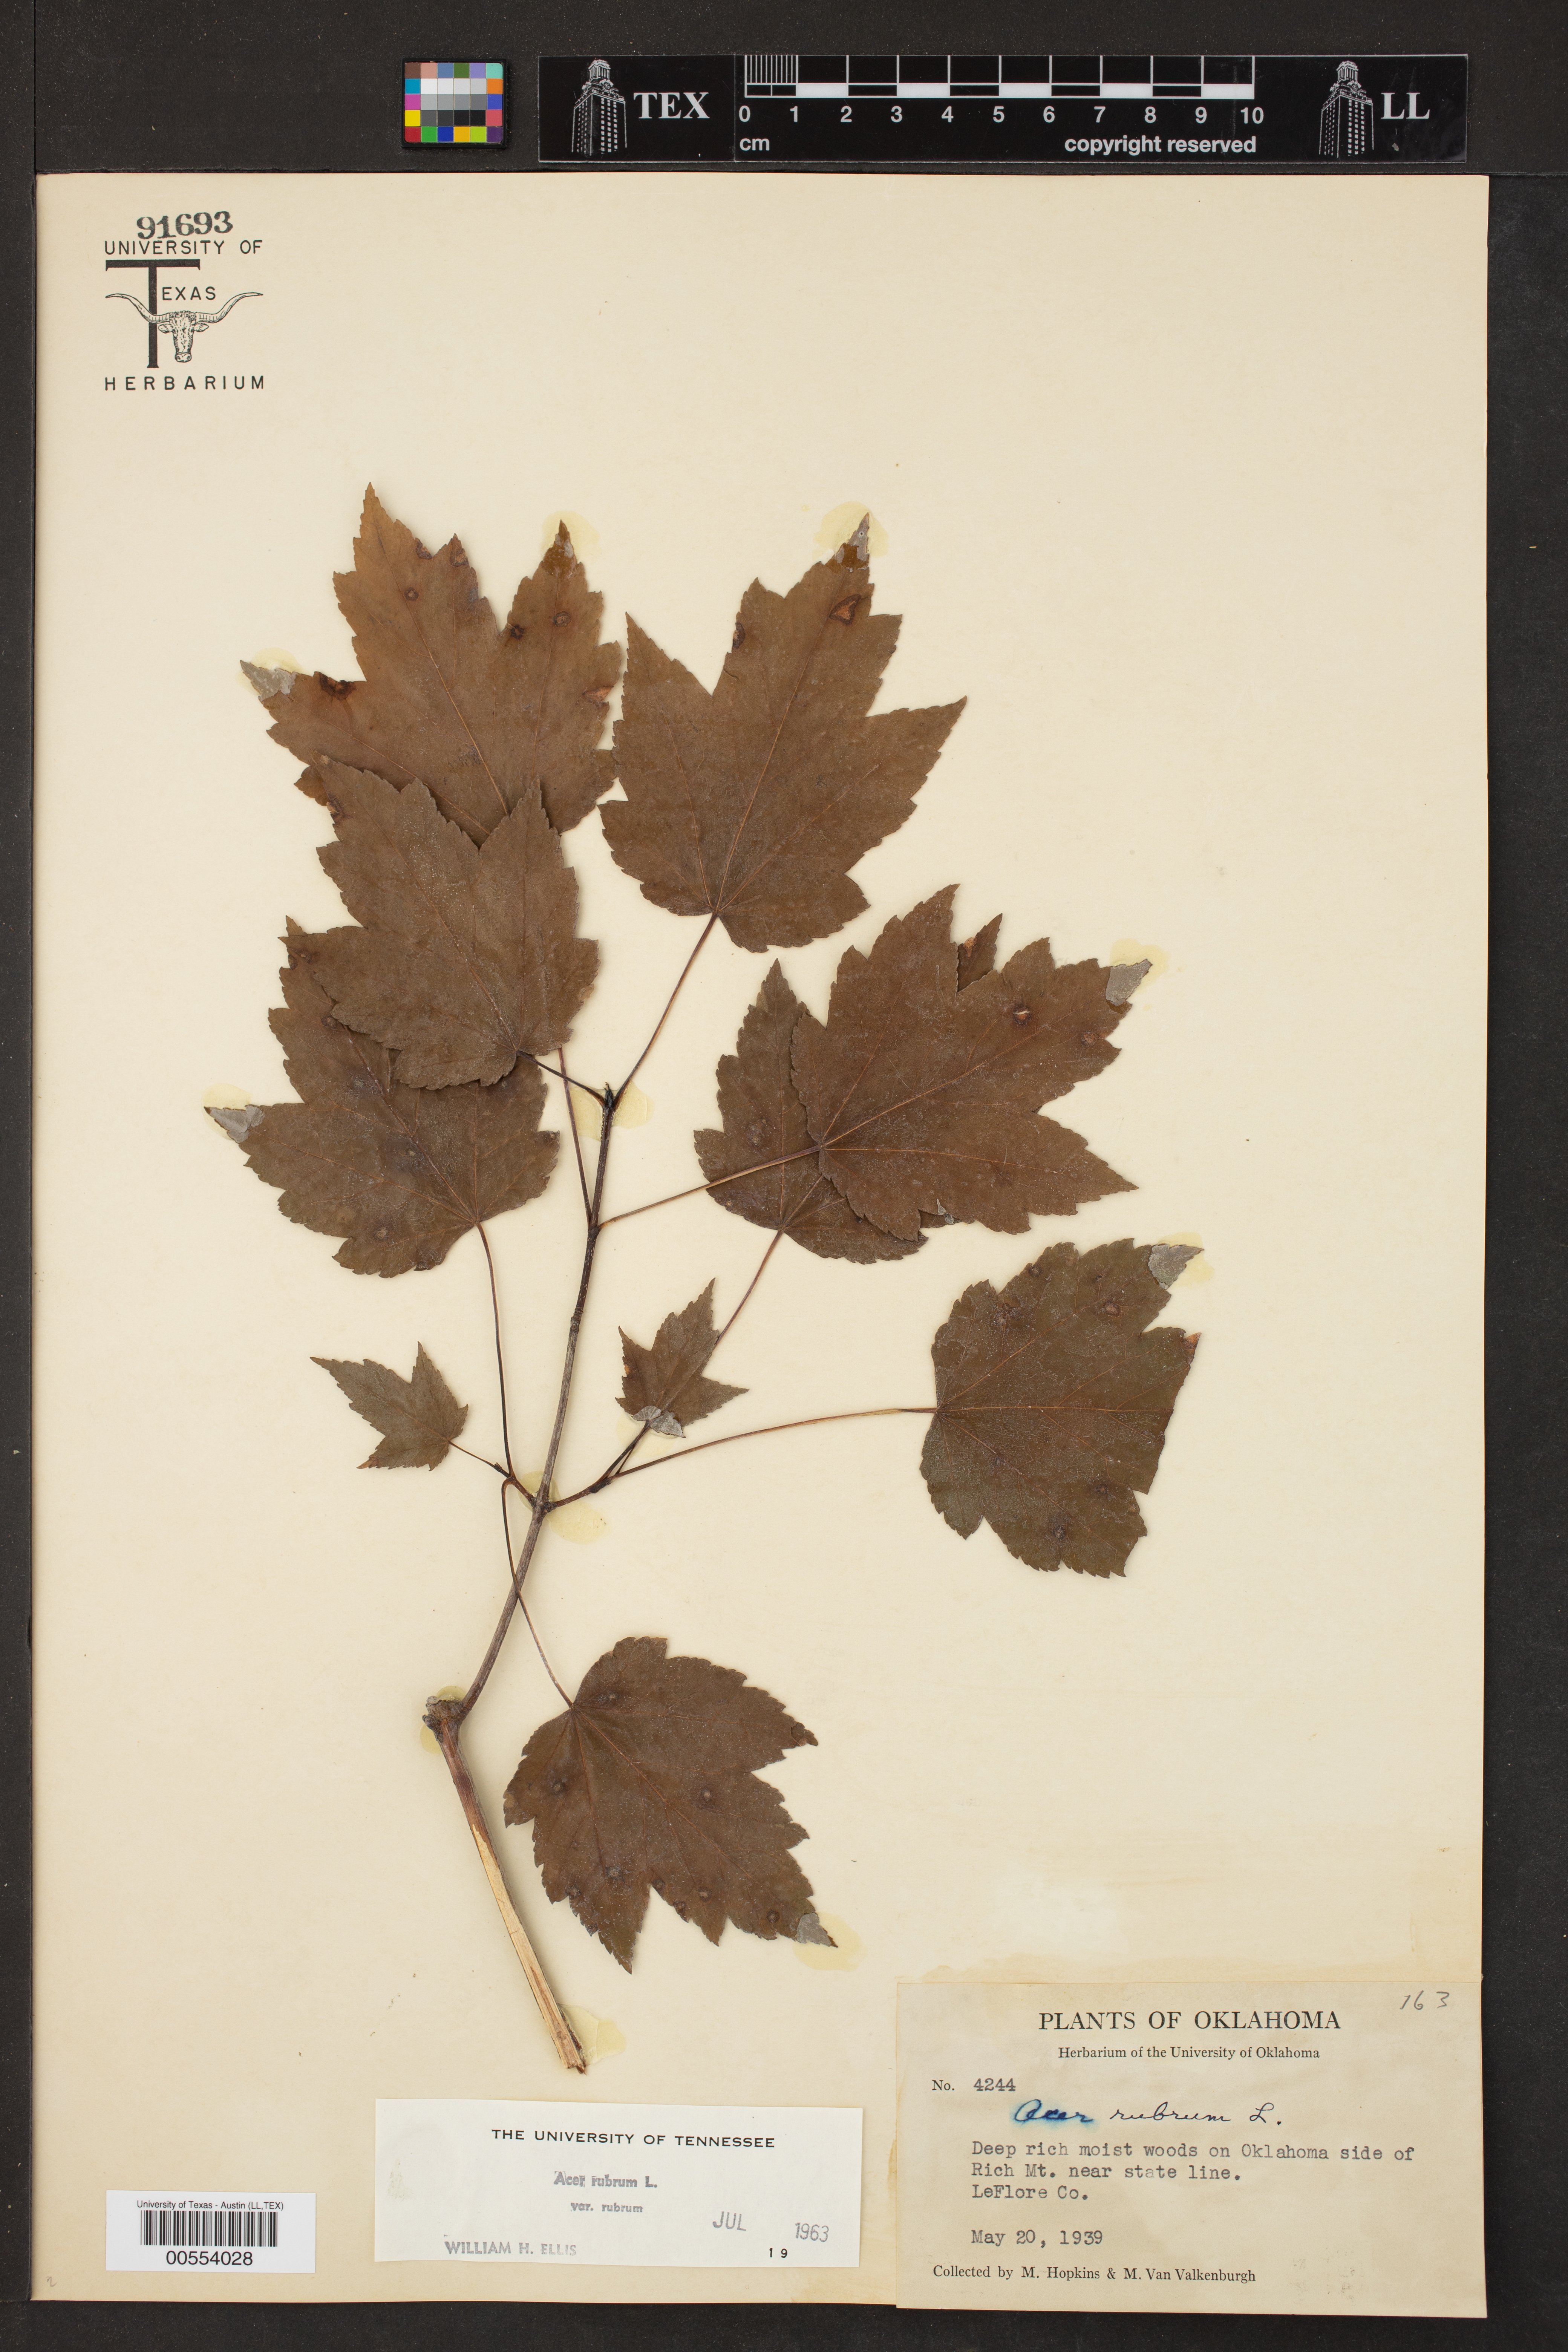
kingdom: Plantae
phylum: Tracheophyta
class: Magnoliopsida
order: Sapindales
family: Sapindaceae
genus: Acer
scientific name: Acer rubrum
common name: Red maple
